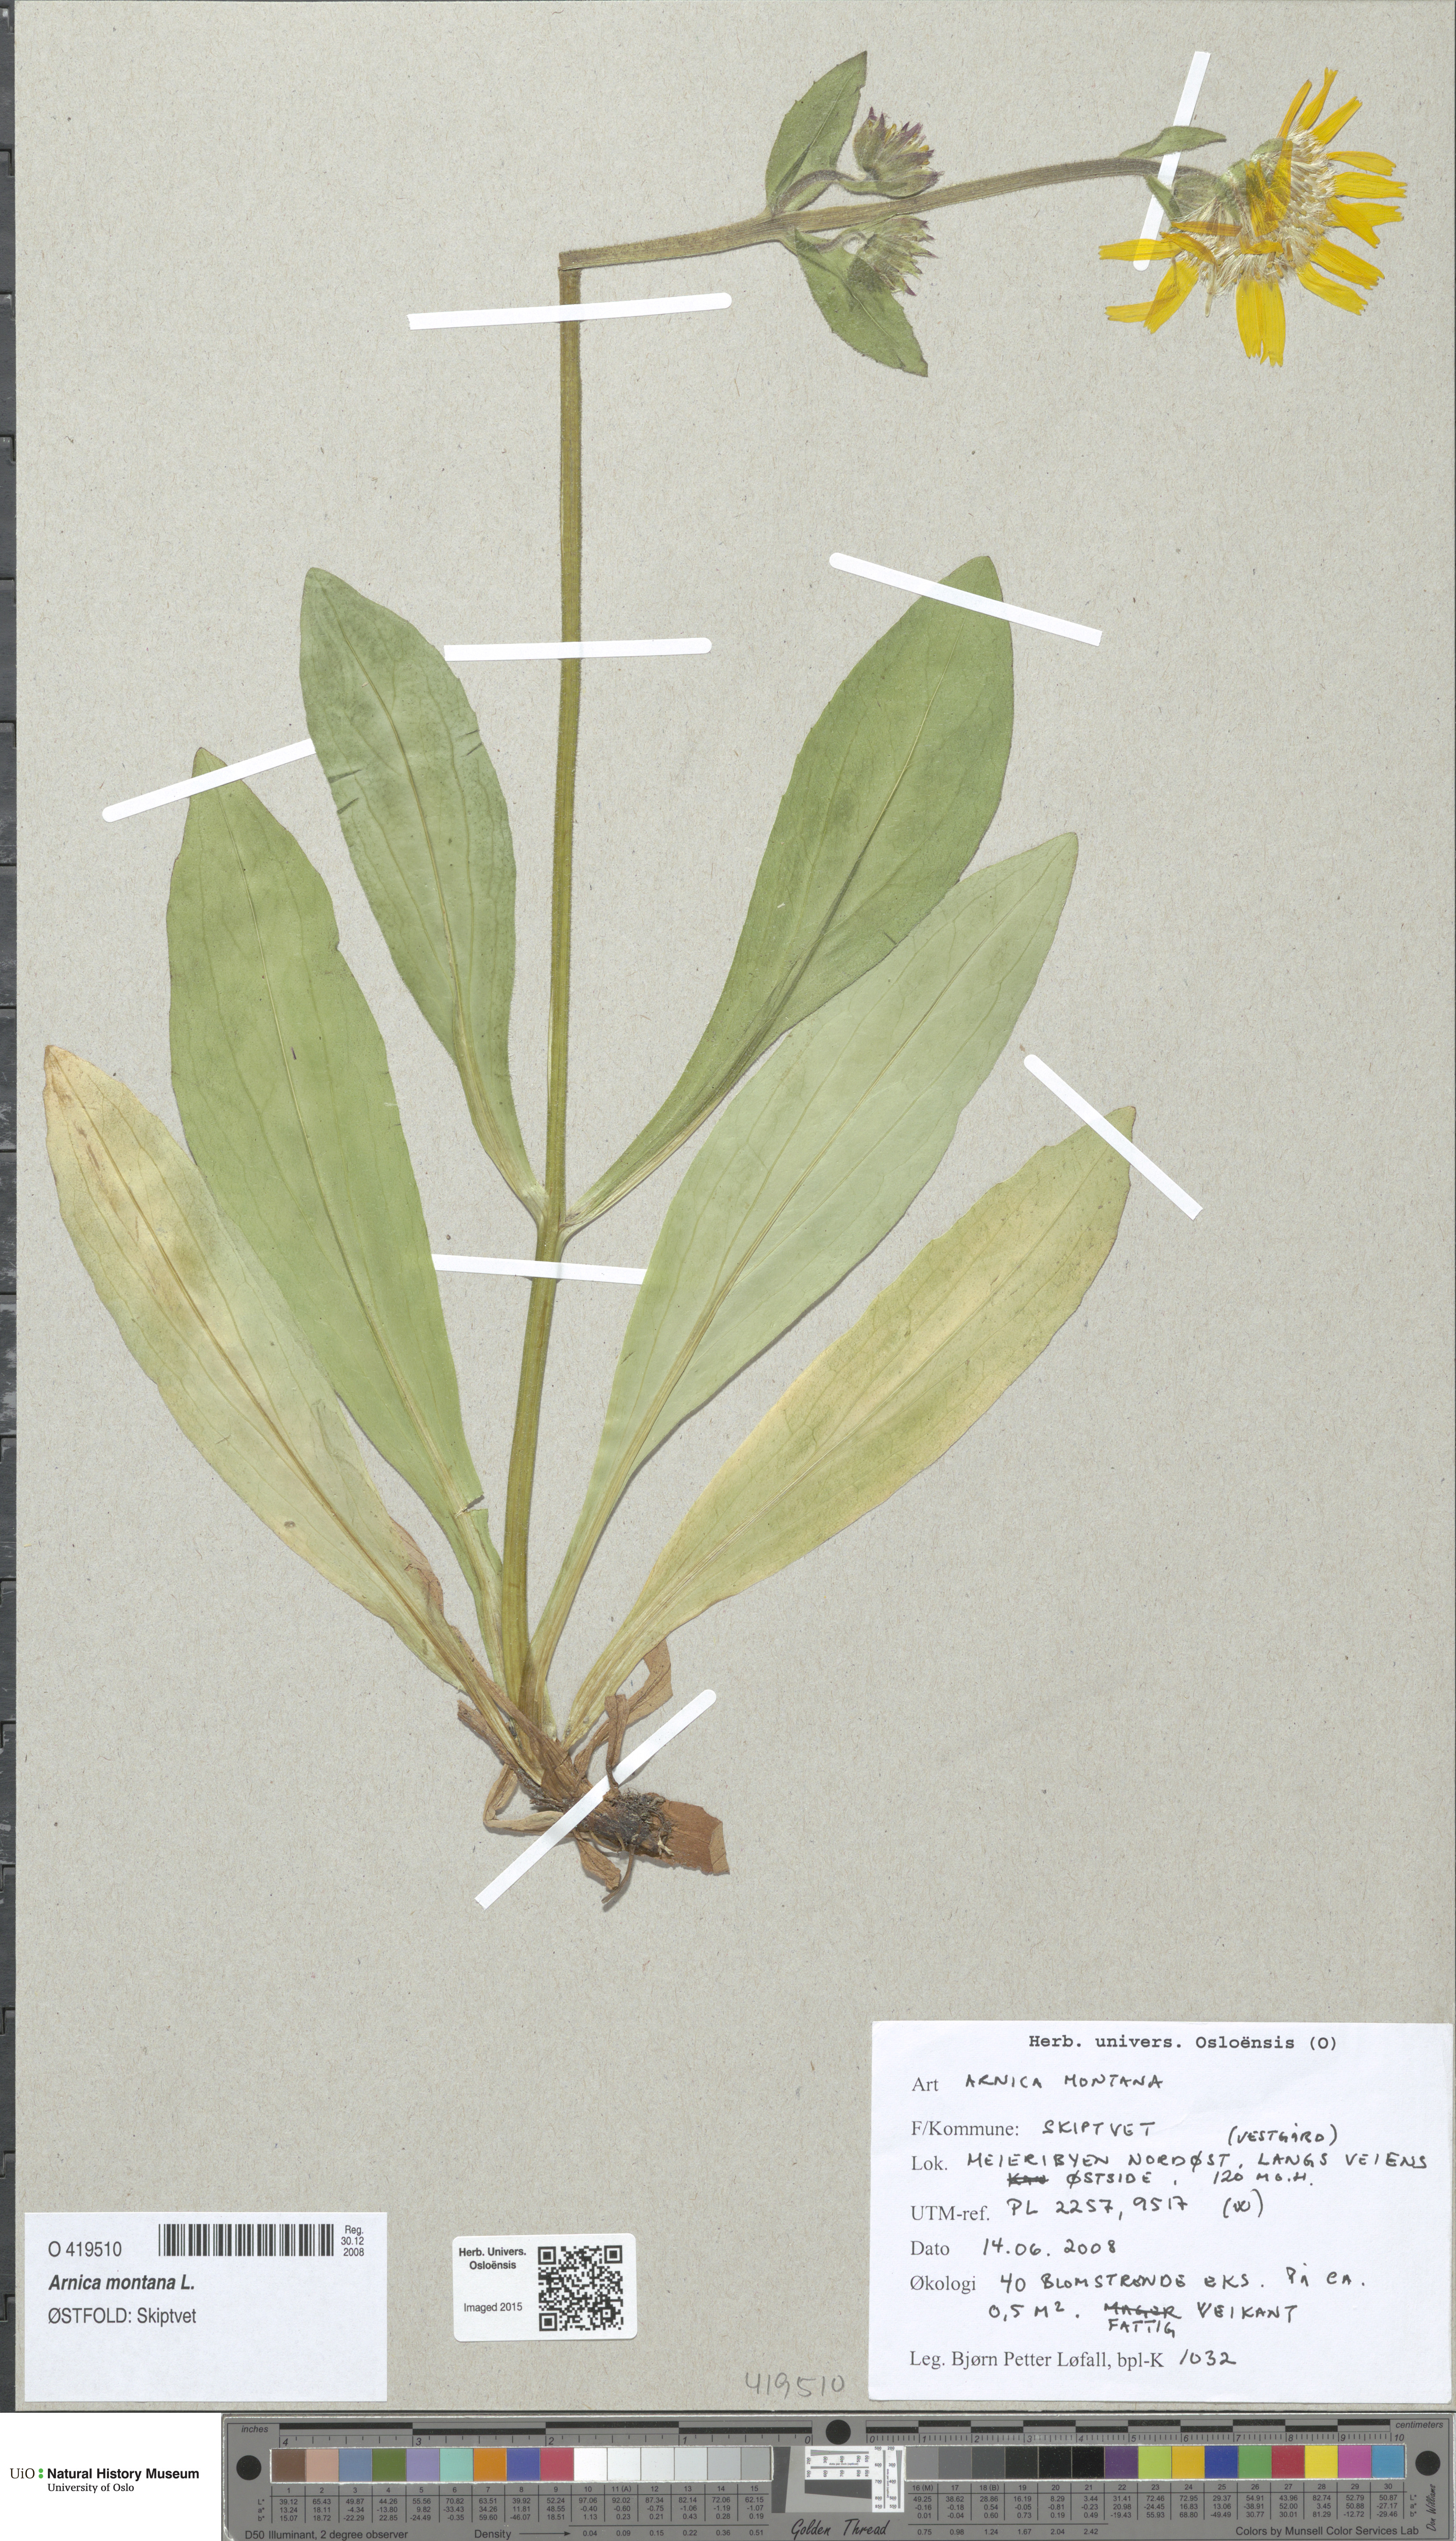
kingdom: Plantae
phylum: Tracheophyta
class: Magnoliopsida
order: Asterales
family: Asteraceae
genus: Arnica
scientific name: Arnica montana
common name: Leopard's bane
